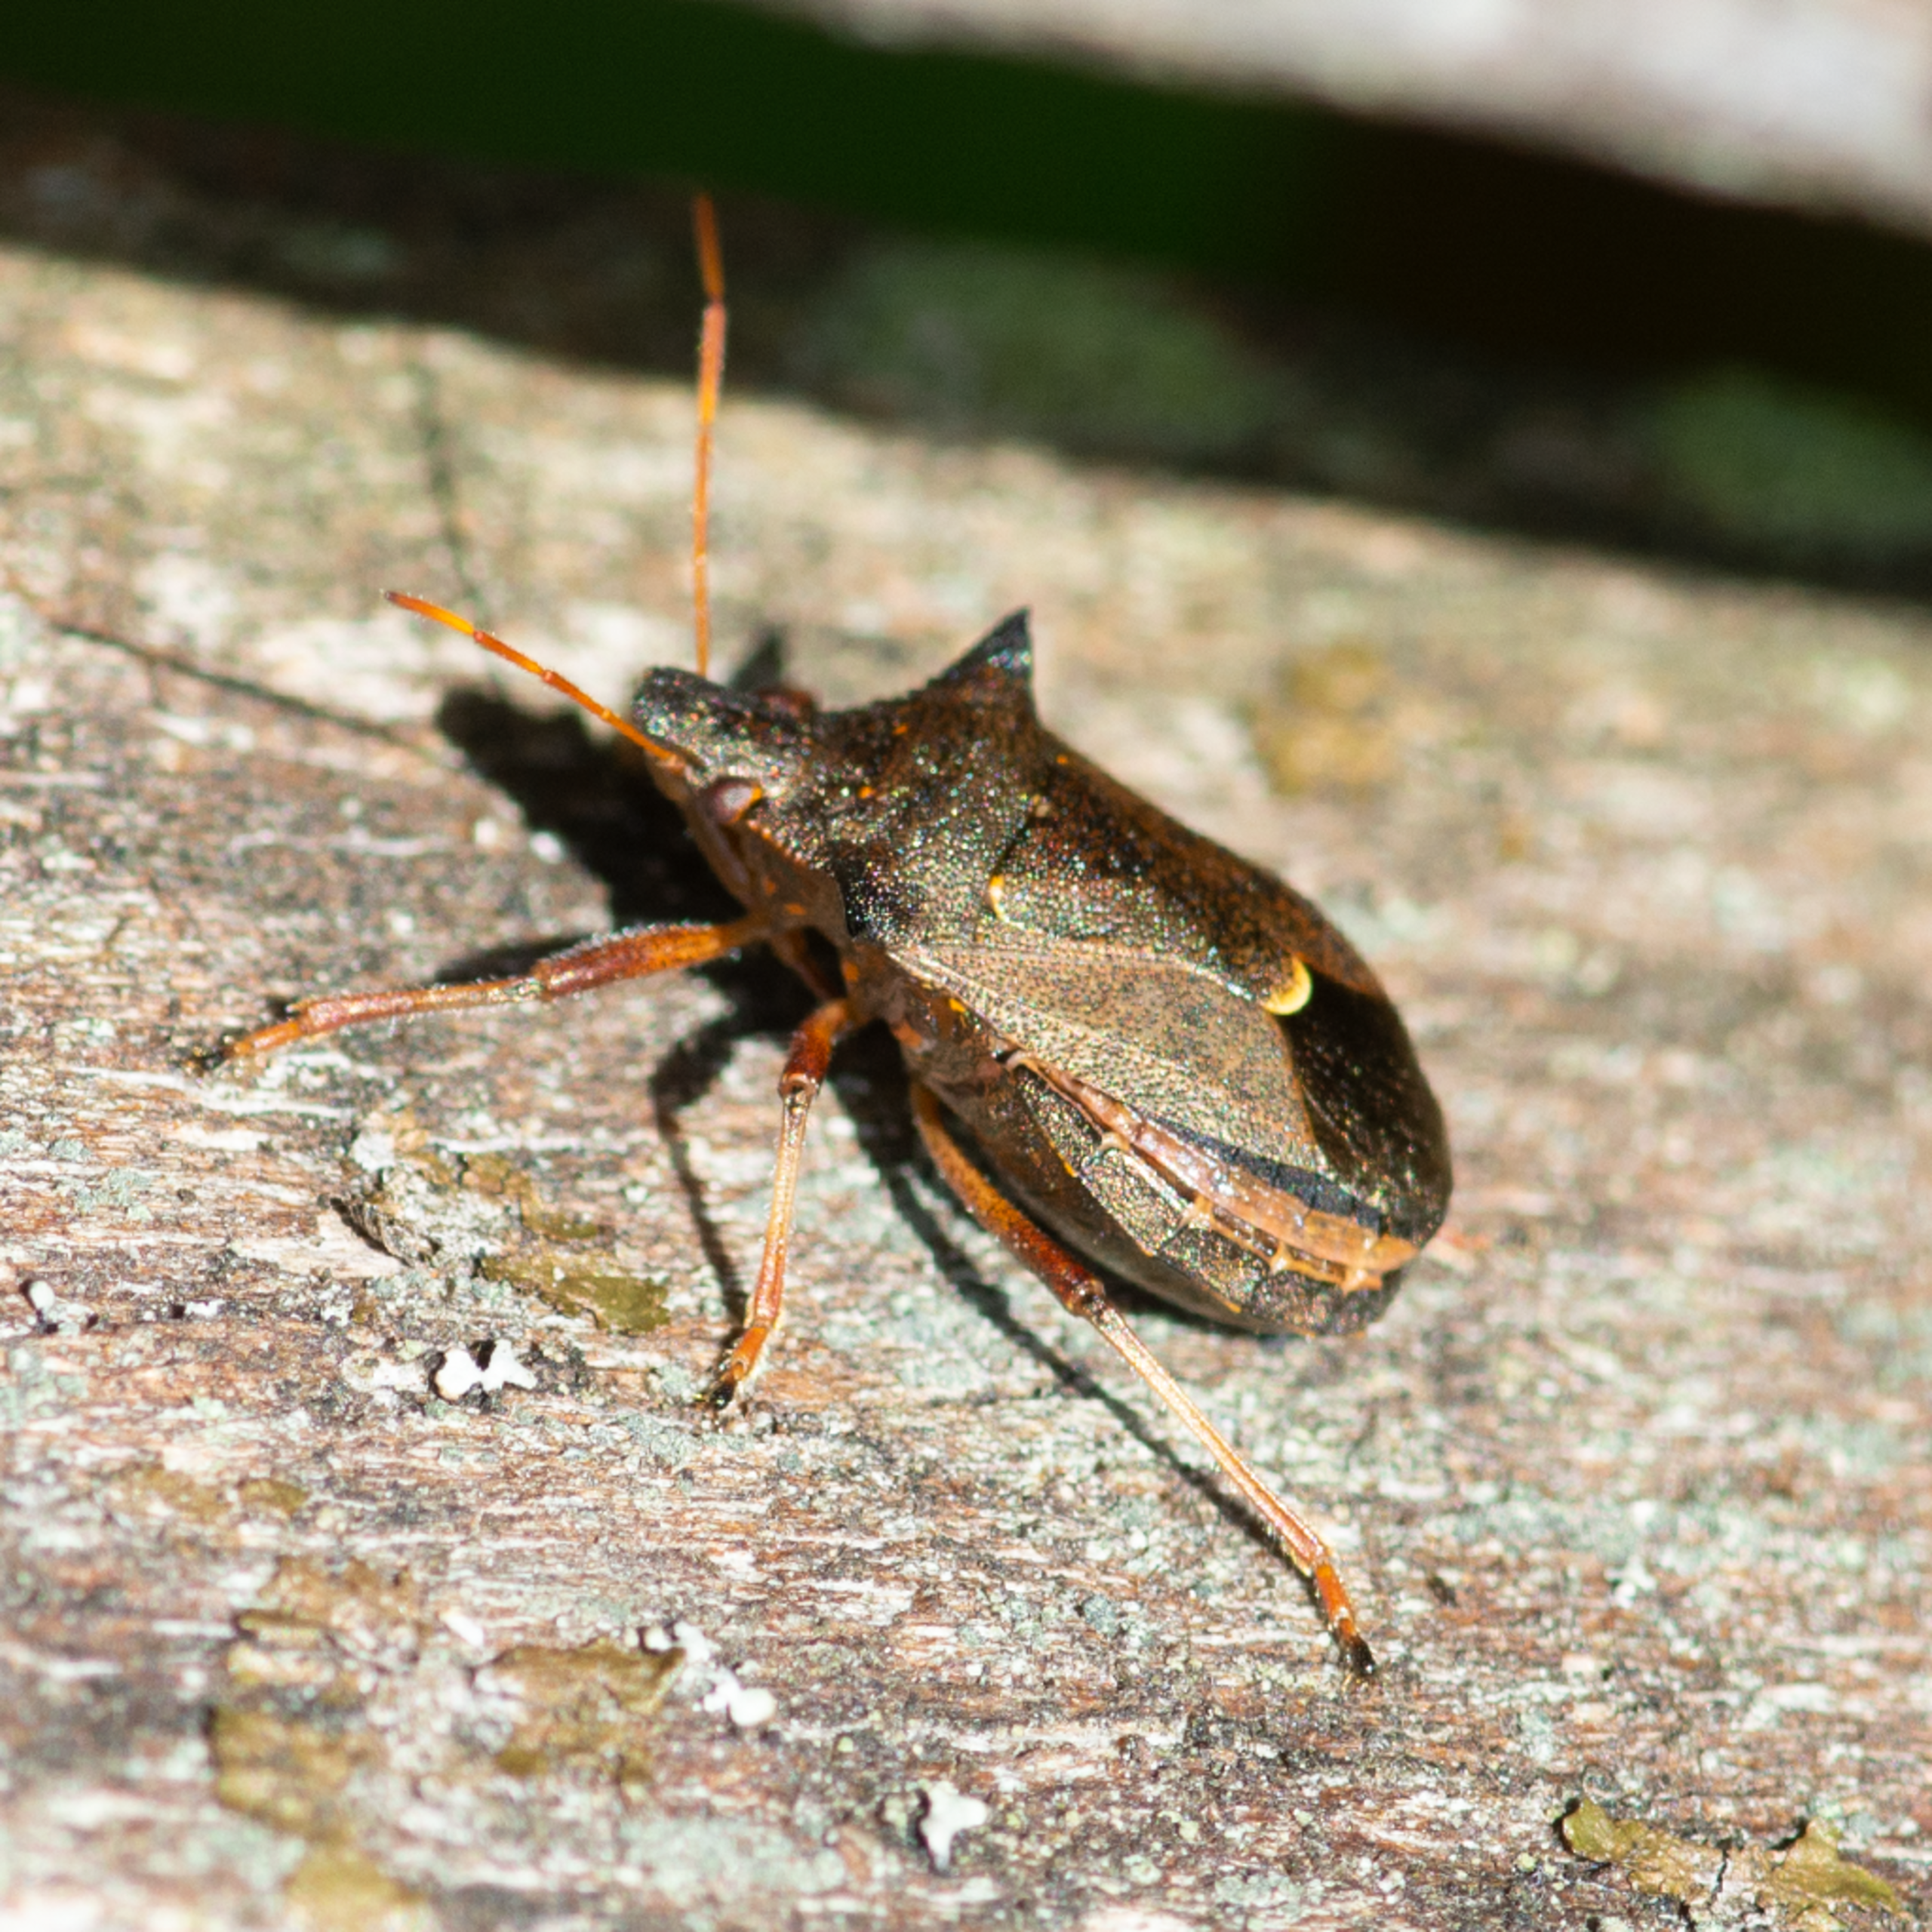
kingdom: Animalia
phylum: Arthropoda
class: Insecta
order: Hemiptera
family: Pentatomidae
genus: Picromerus
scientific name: Picromerus bidens
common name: Torntæge
